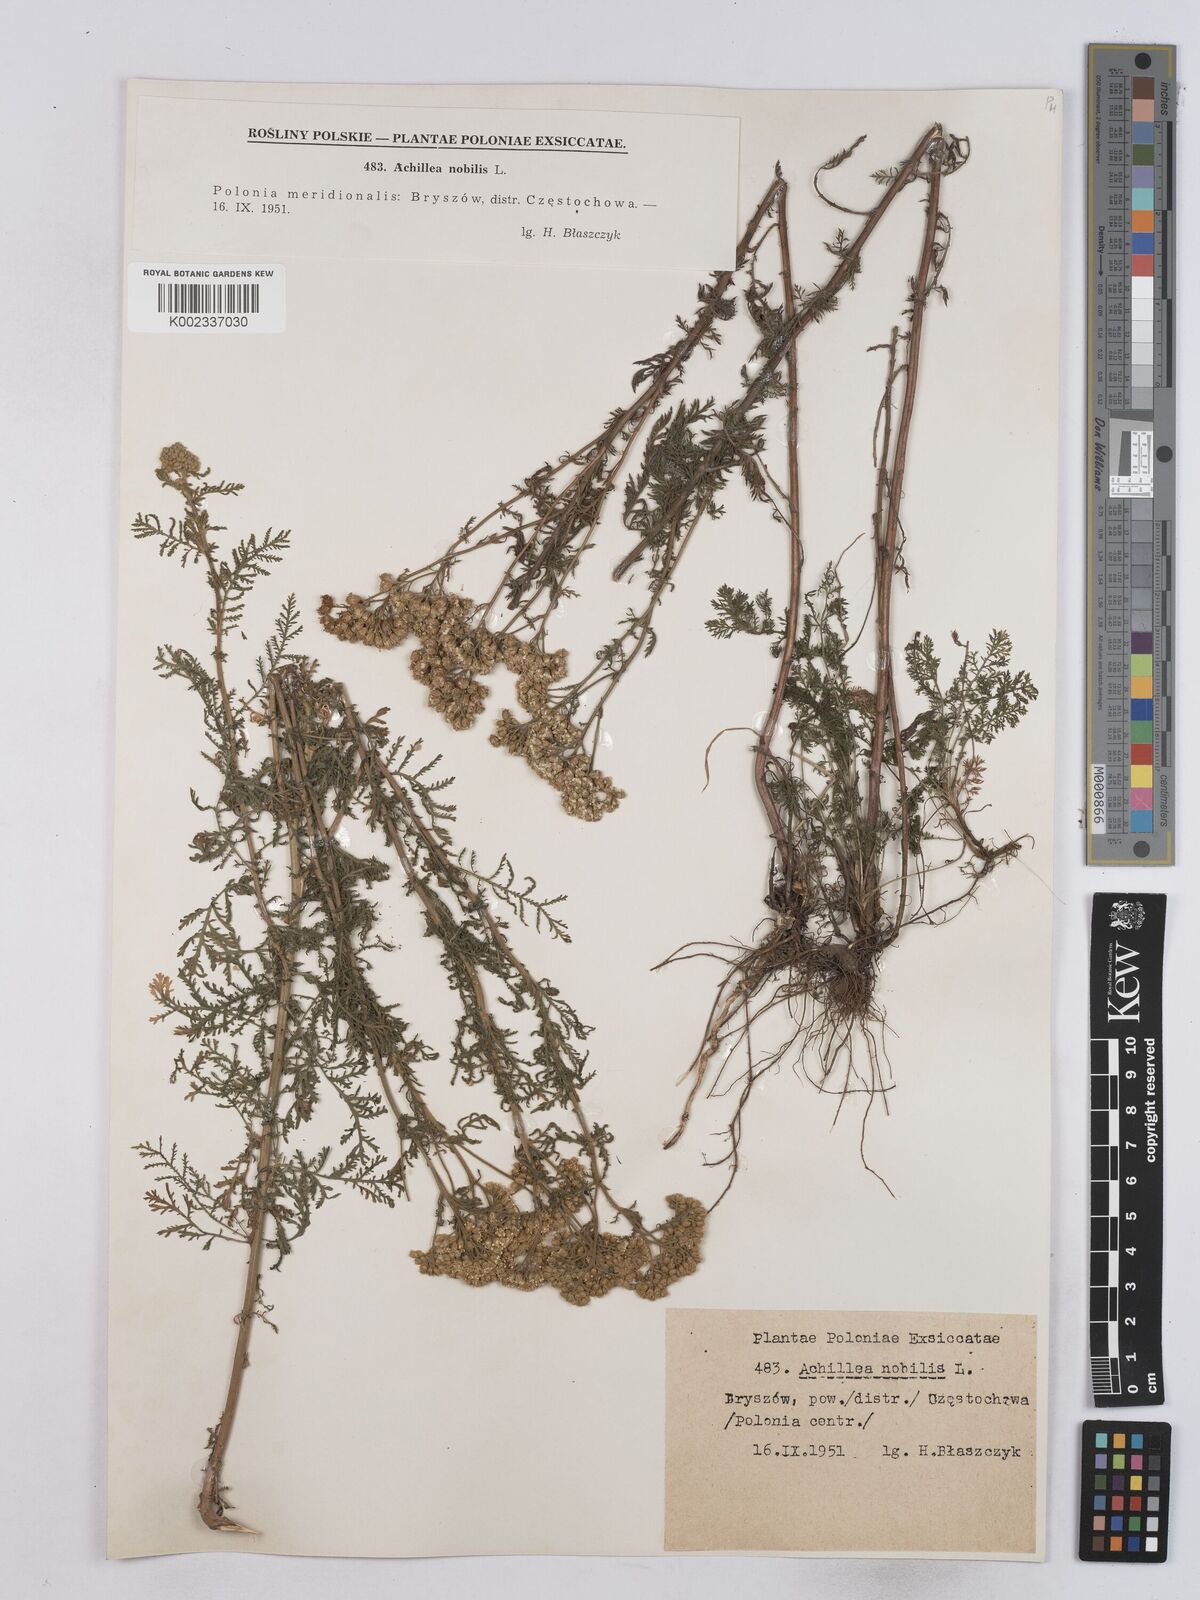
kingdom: Plantae
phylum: Tracheophyta
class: Magnoliopsida
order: Asterales
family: Asteraceae
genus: Achillea
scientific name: Achillea nobilis
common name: Noble yarrow
